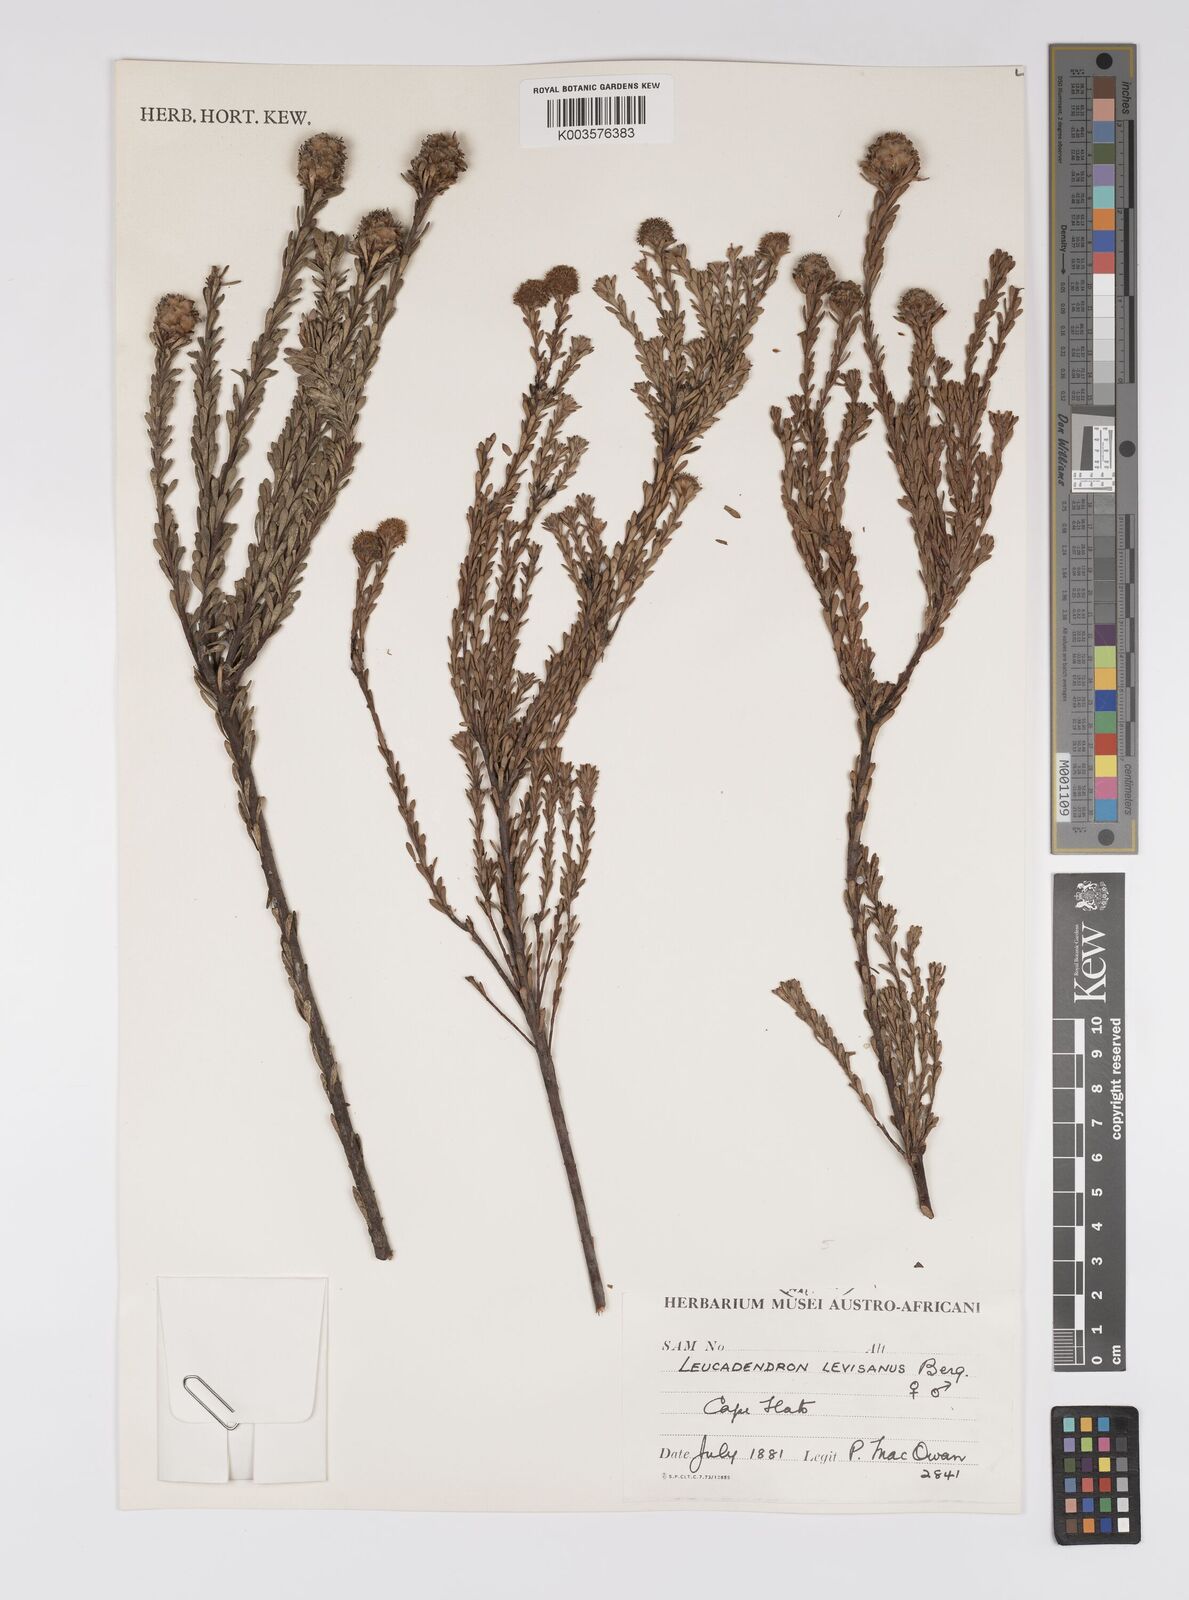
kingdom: Plantae
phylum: Tracheophyta
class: Magnoliopsida
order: Proteales
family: Proteaceae
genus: Leucadendron
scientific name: Leucadendron levisanus
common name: Cape flats conebush
